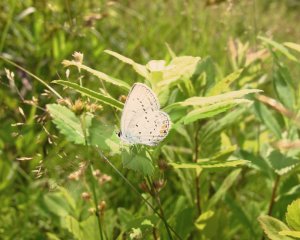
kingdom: Animalia
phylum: Arthropoda
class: Insecta
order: Lepidoptera
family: Lycaenidae
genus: Elkalyce
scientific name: Elkalyce comyntas
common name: Eastern Tailed-Blue
